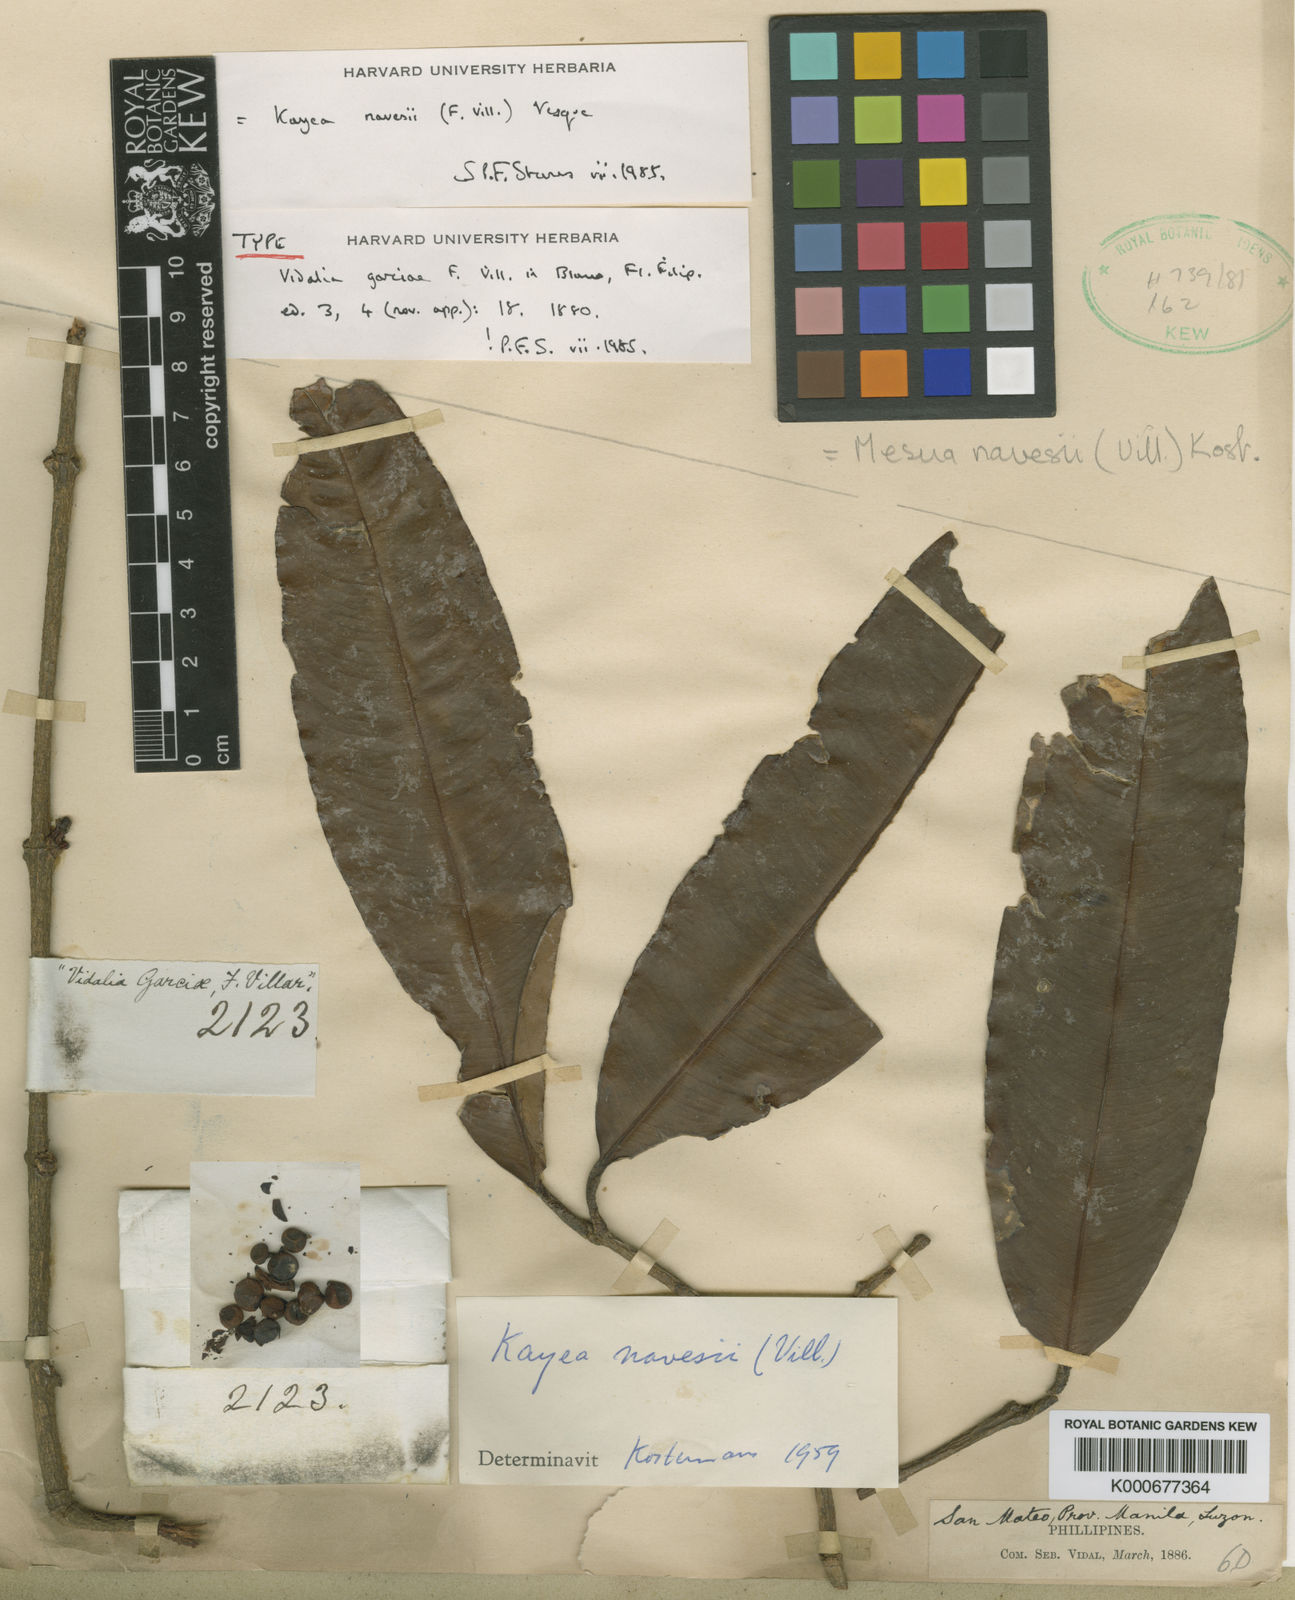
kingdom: Plantae
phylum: Tracheophyta
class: Magnoliopsida
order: Malpighiales
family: Calophyllaceae
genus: Kayea
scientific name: Kayea navesii
